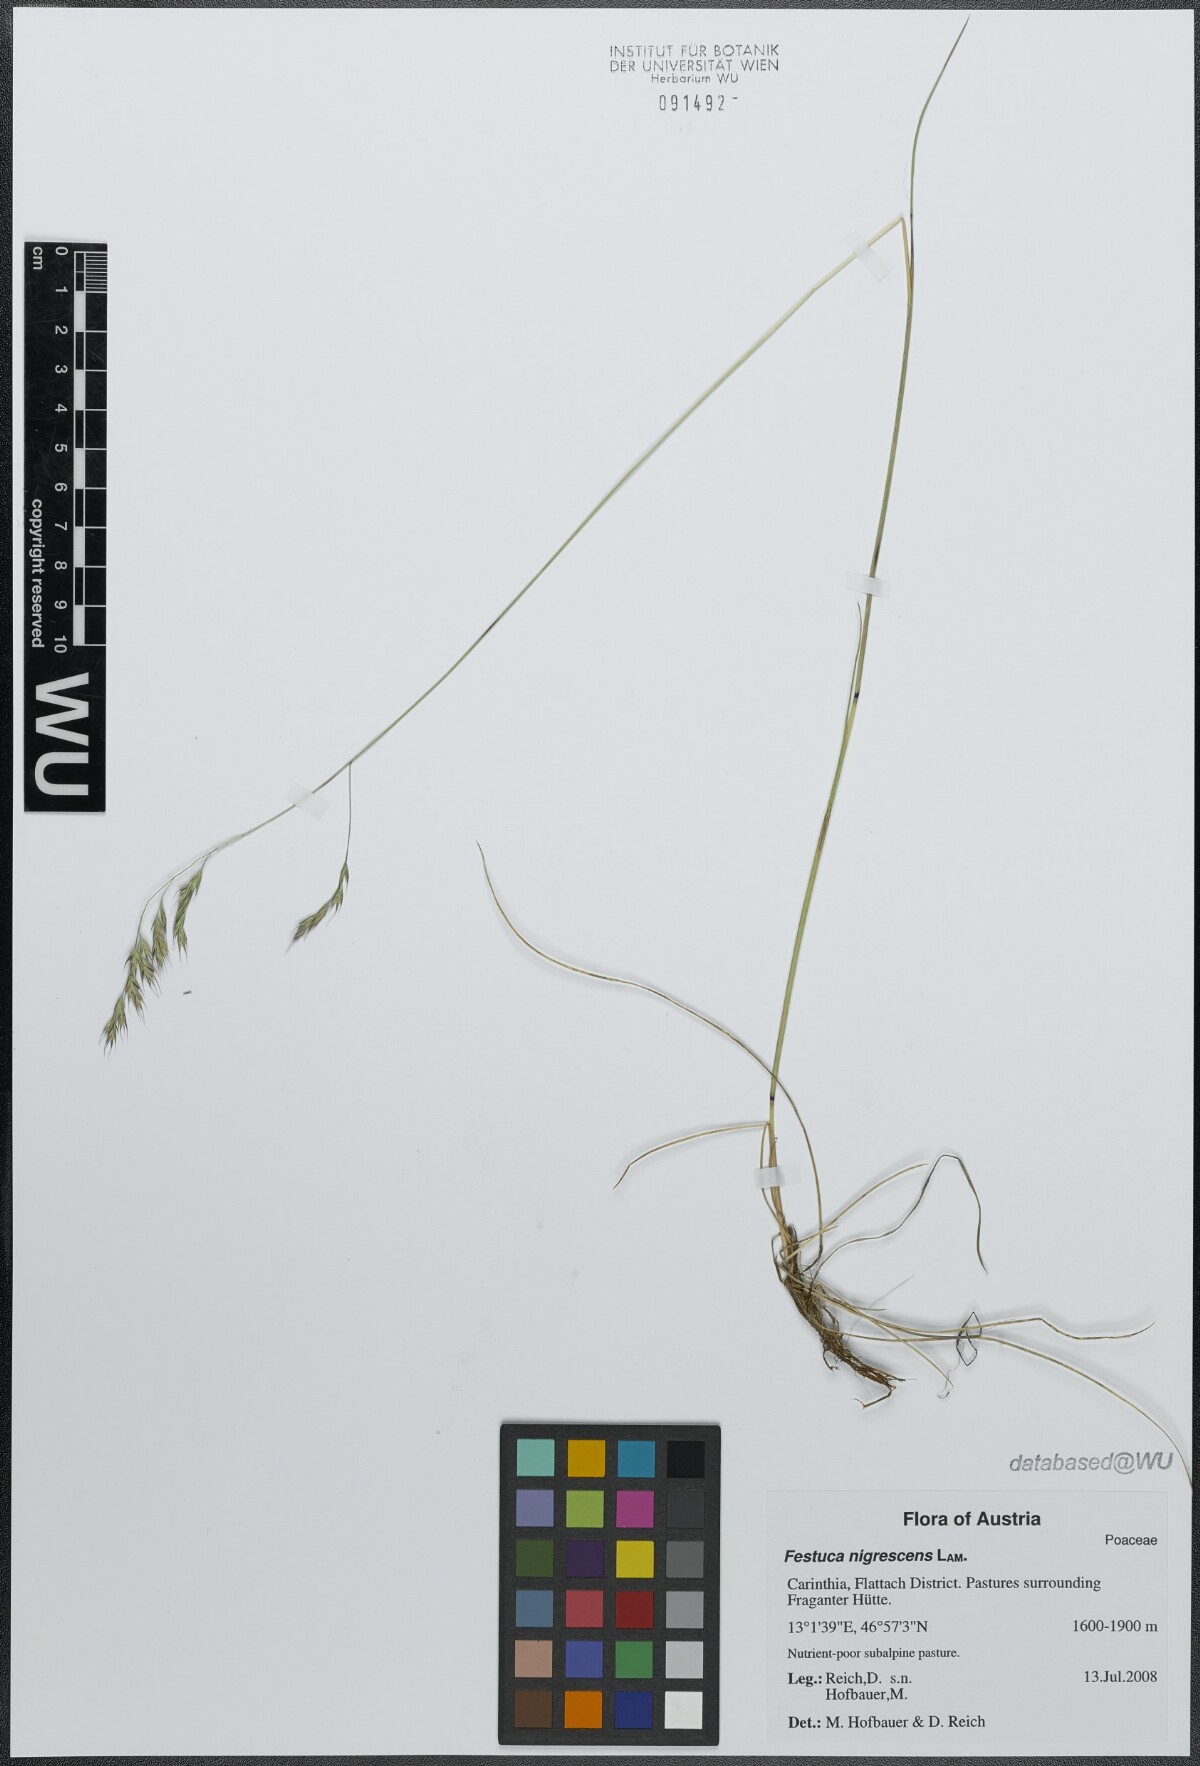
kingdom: Plantae
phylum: Tracheophyta
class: Liliopsida
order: Poales
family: Poaceae
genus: Festuca
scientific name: Festuca nigrescens
